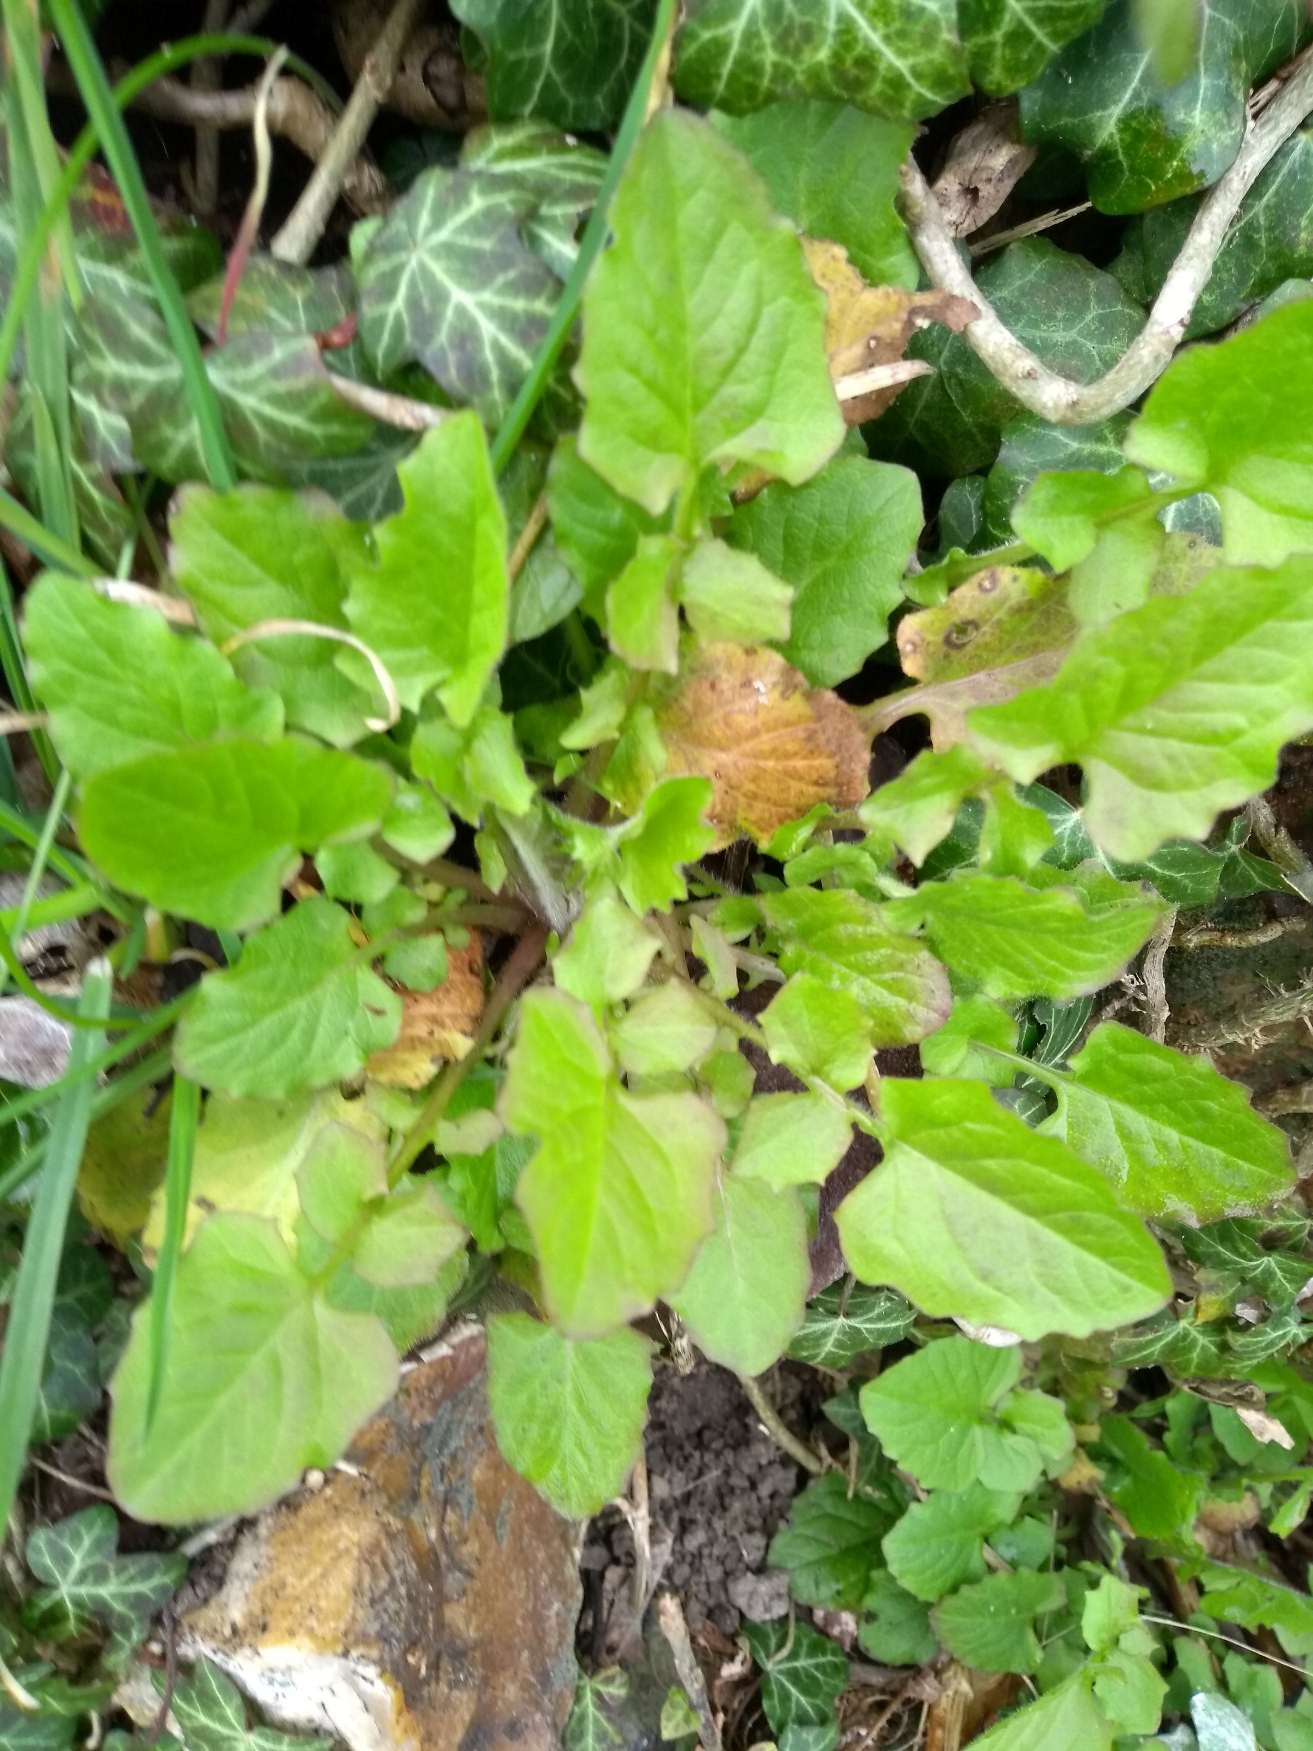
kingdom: Plantae
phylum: Tracheophyta
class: Magnoliopsida
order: Asterales
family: Asteraceae
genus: Lapsana
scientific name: Lapsana communis
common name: Haremad
